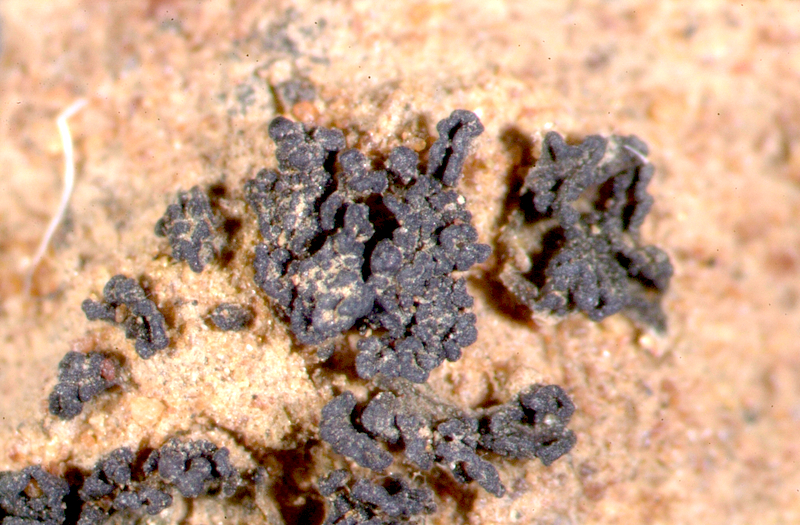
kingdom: Fungi
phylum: Ascomycota
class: Lecanoromycetes
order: Peltigerales
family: Collemataceae
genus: Enchylium
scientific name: Enchylium coccophorum
